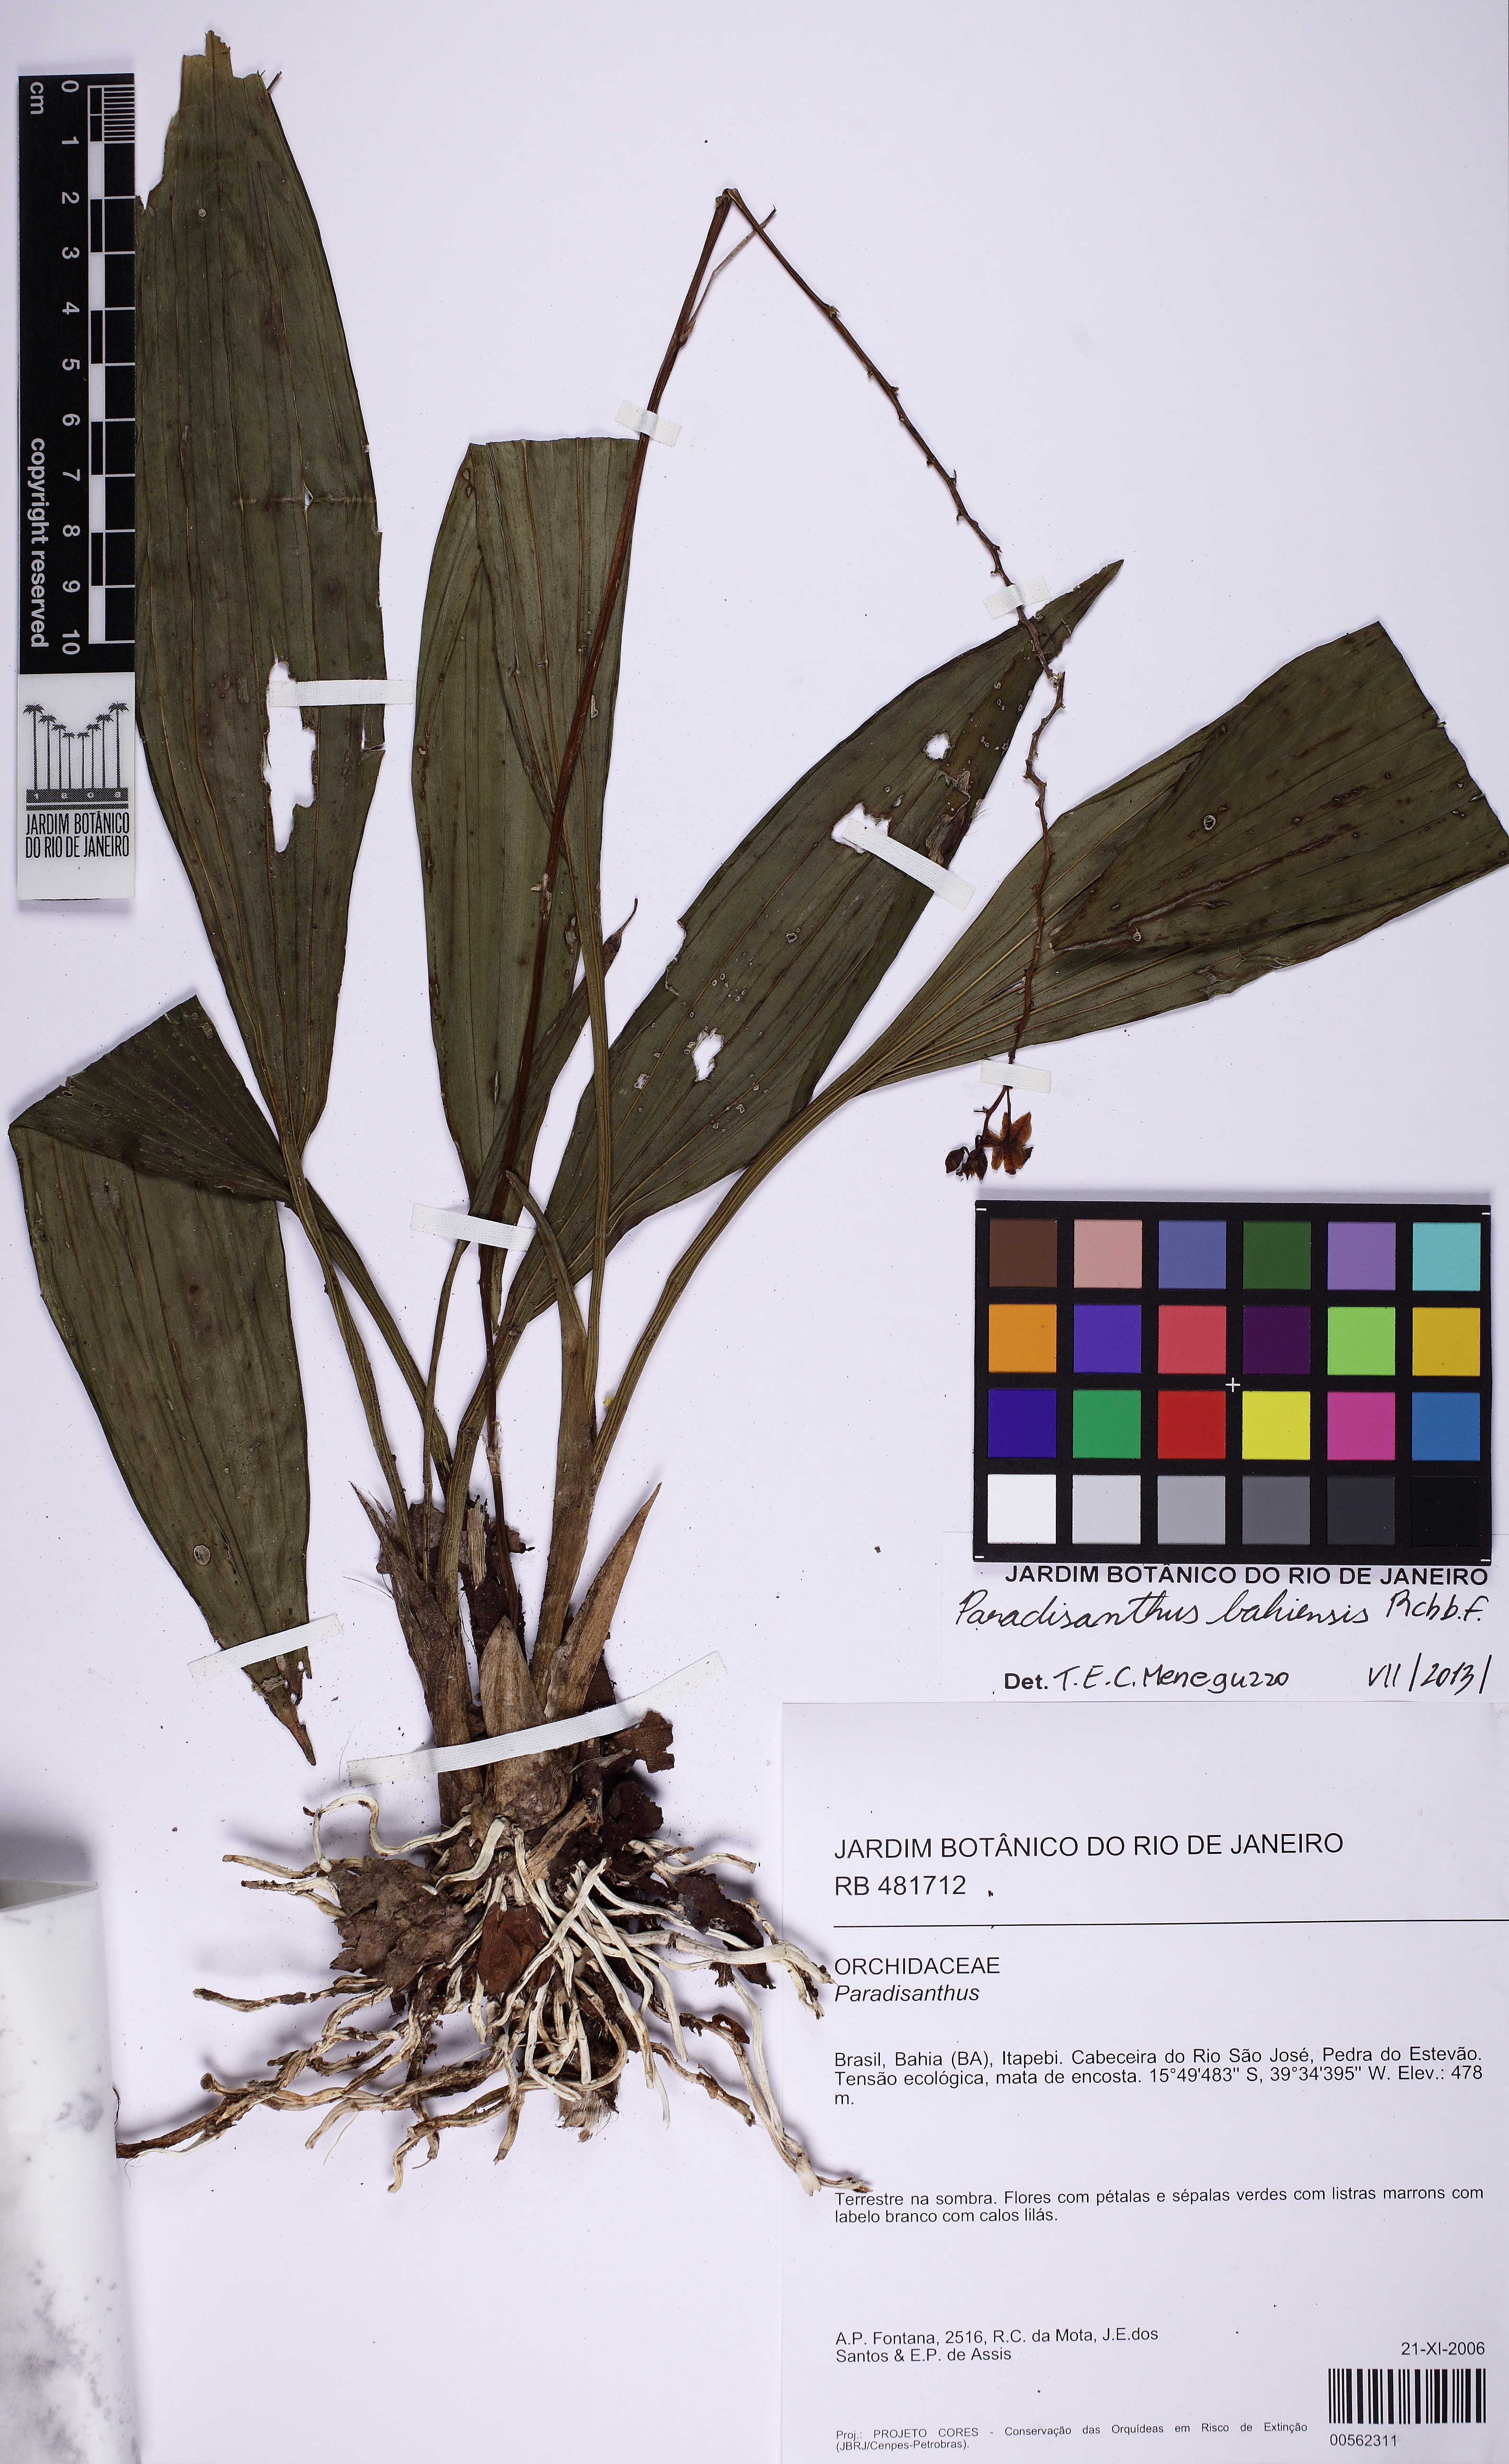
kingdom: Plantae
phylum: Tracheophyta
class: Liliopsida
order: Asparagales
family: Orchidaceae
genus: Paradisanthus
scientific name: Paradisanthus bahiensis
